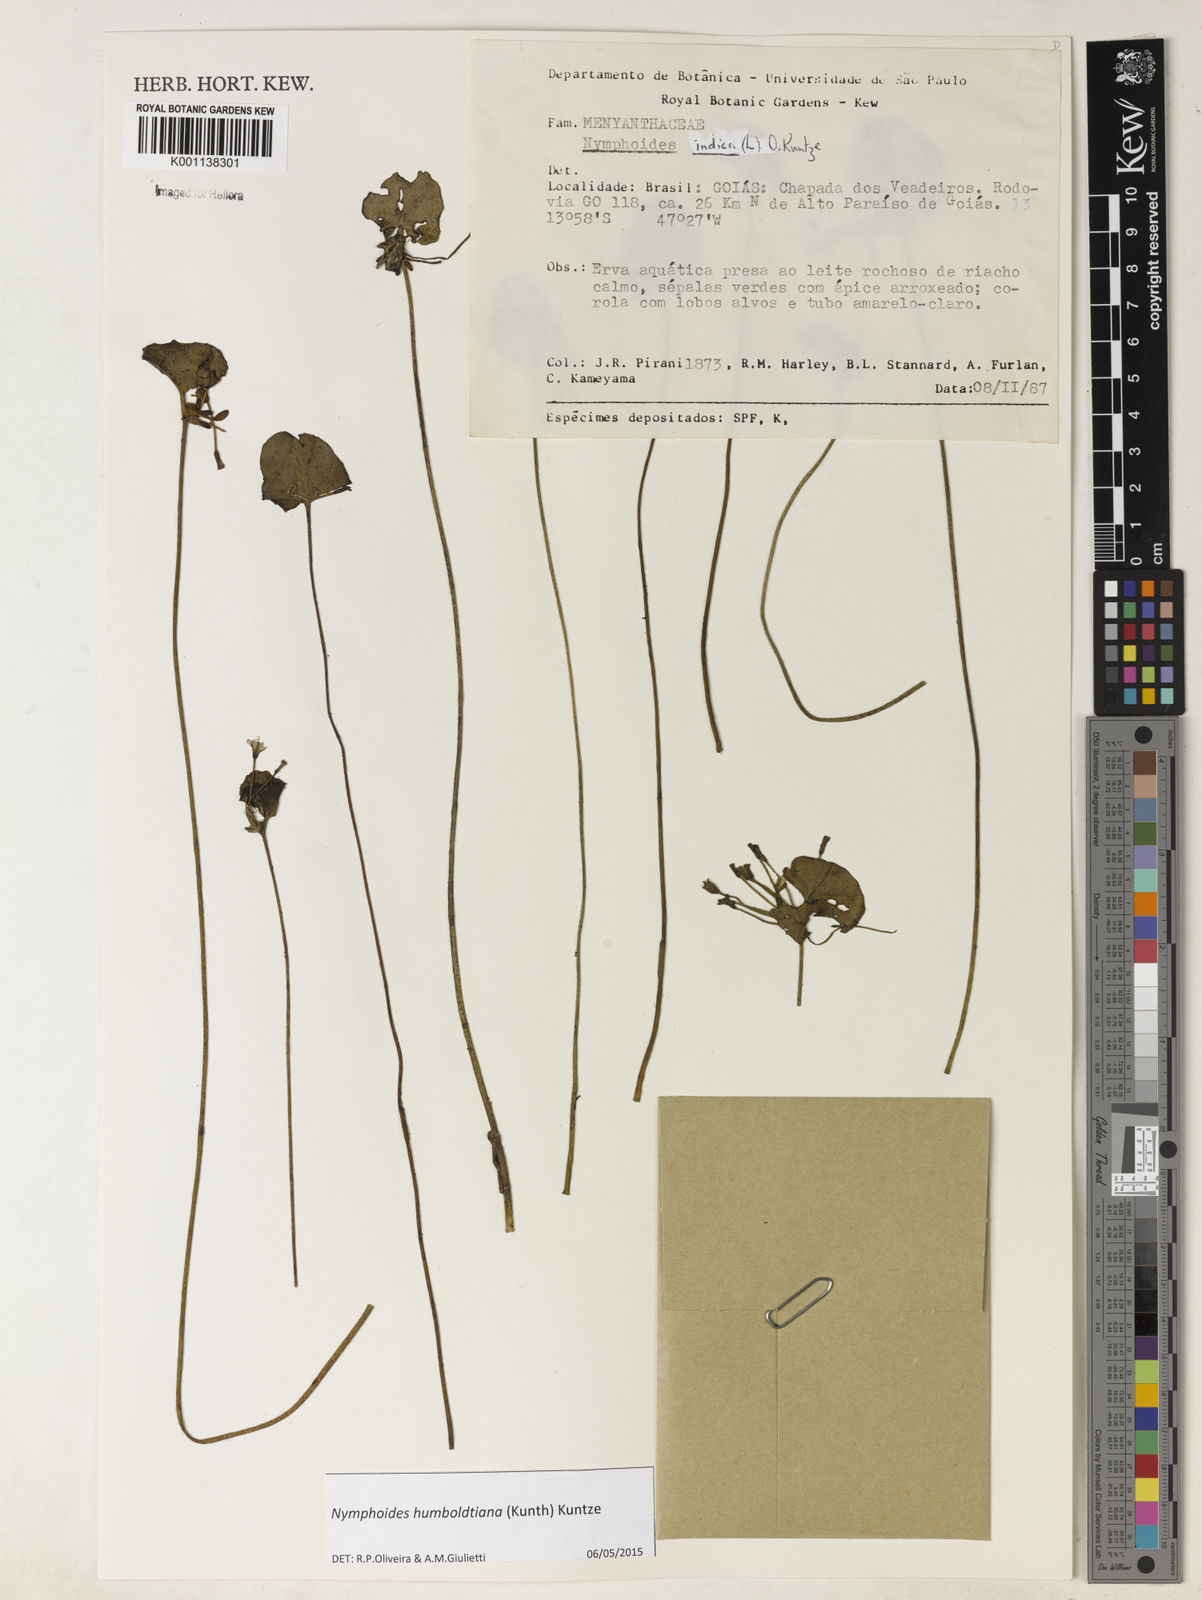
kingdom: Plantae
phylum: Tracheophyta
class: Magnoliopsida
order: Asterales
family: Menyanthaceae
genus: Nymphoides
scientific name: Nymphoides indica
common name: Water-snowflake
